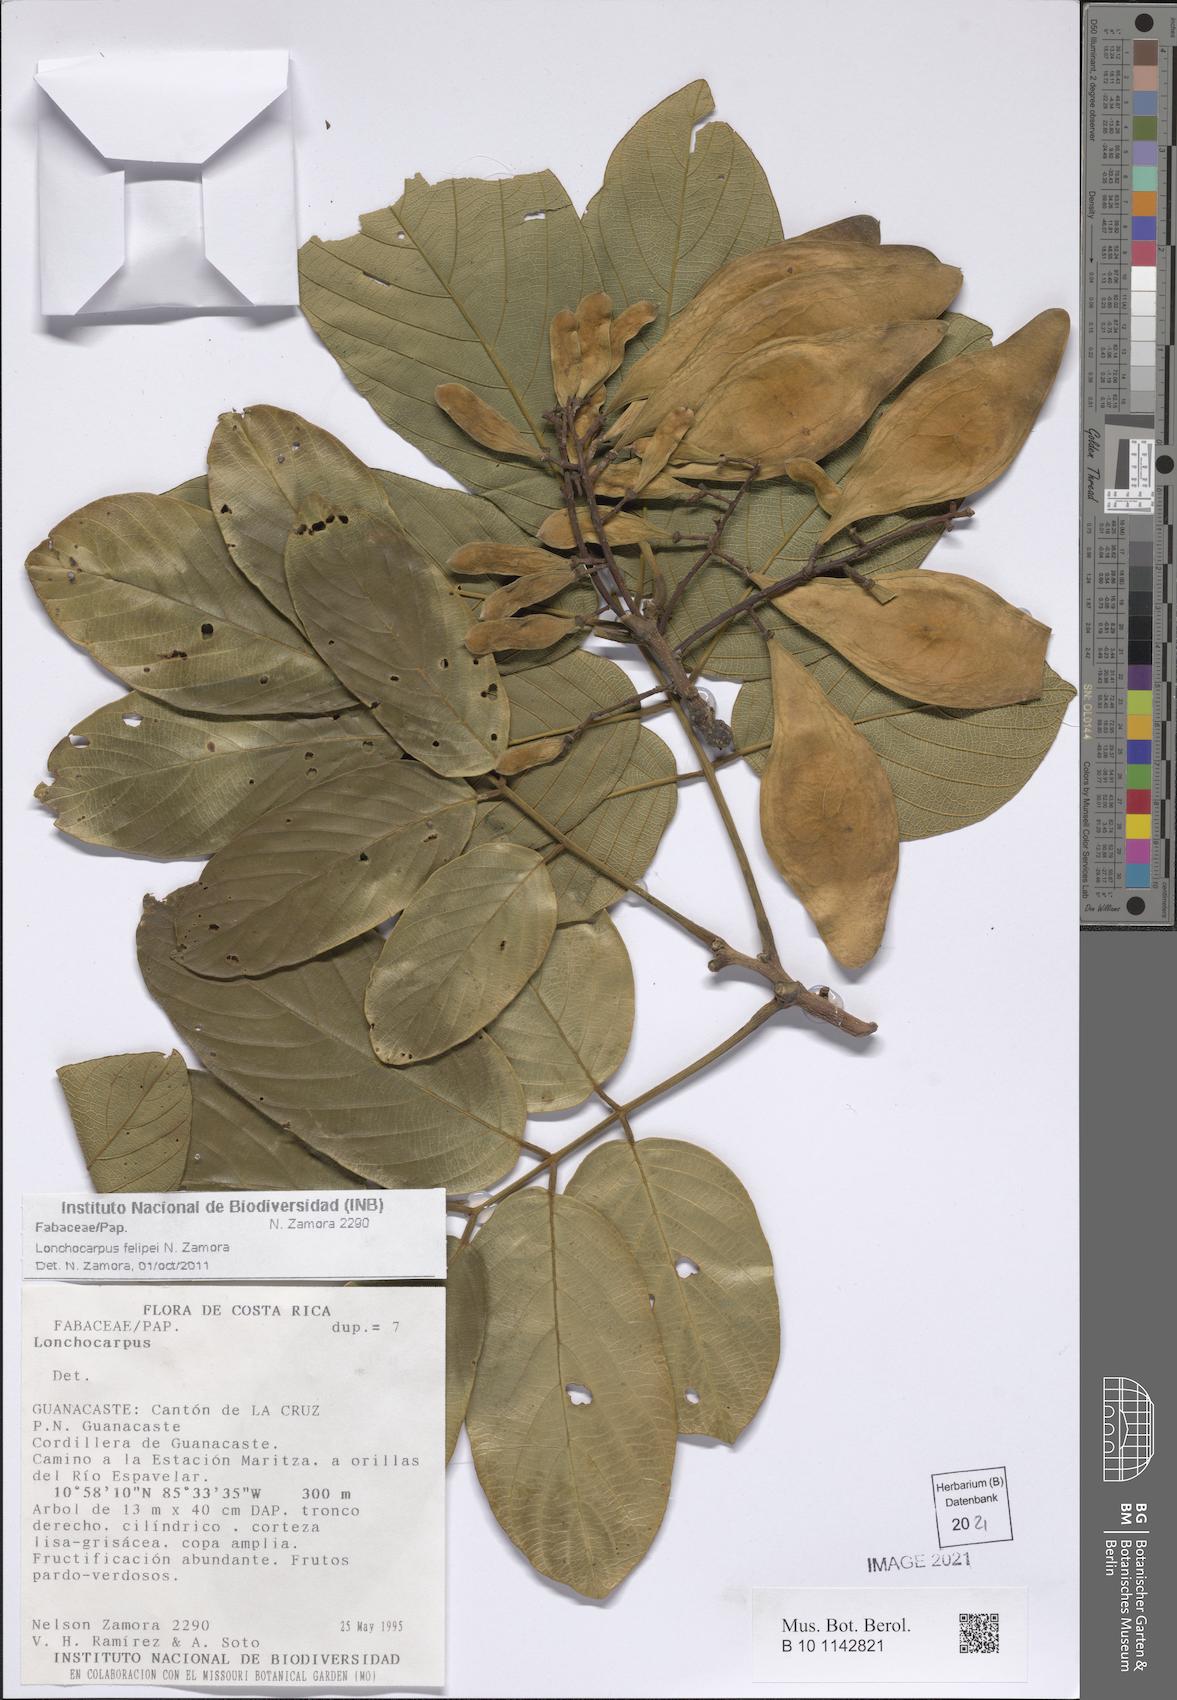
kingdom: Plantae
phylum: Tracheophyta
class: Magnoliopsida
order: Fabales
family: Fabaceae
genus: Lonchocarpus
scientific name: Lonchocarpus felipei
